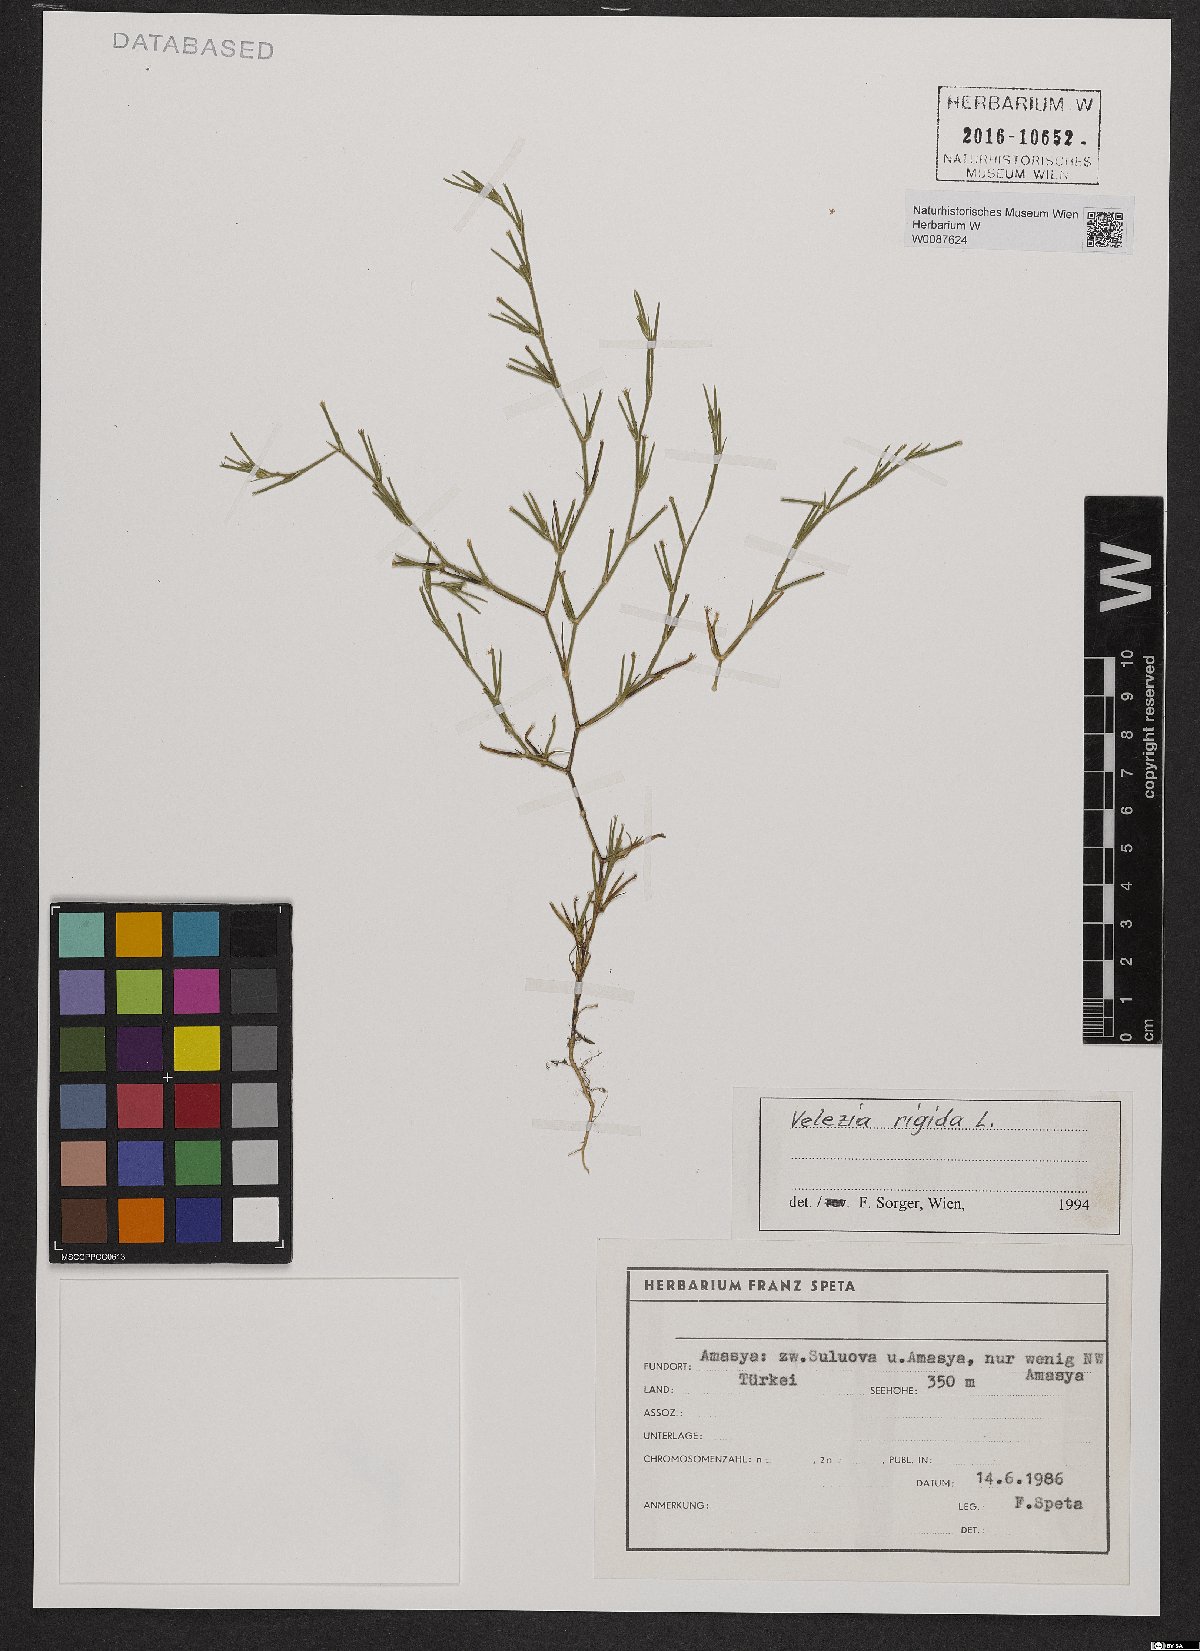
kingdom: Plantae
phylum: Tracheophyta
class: Magnoliopsida
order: Caryophyllales
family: Caryophyllaceae
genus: Dianthus
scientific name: Dianthus nudiflorus
